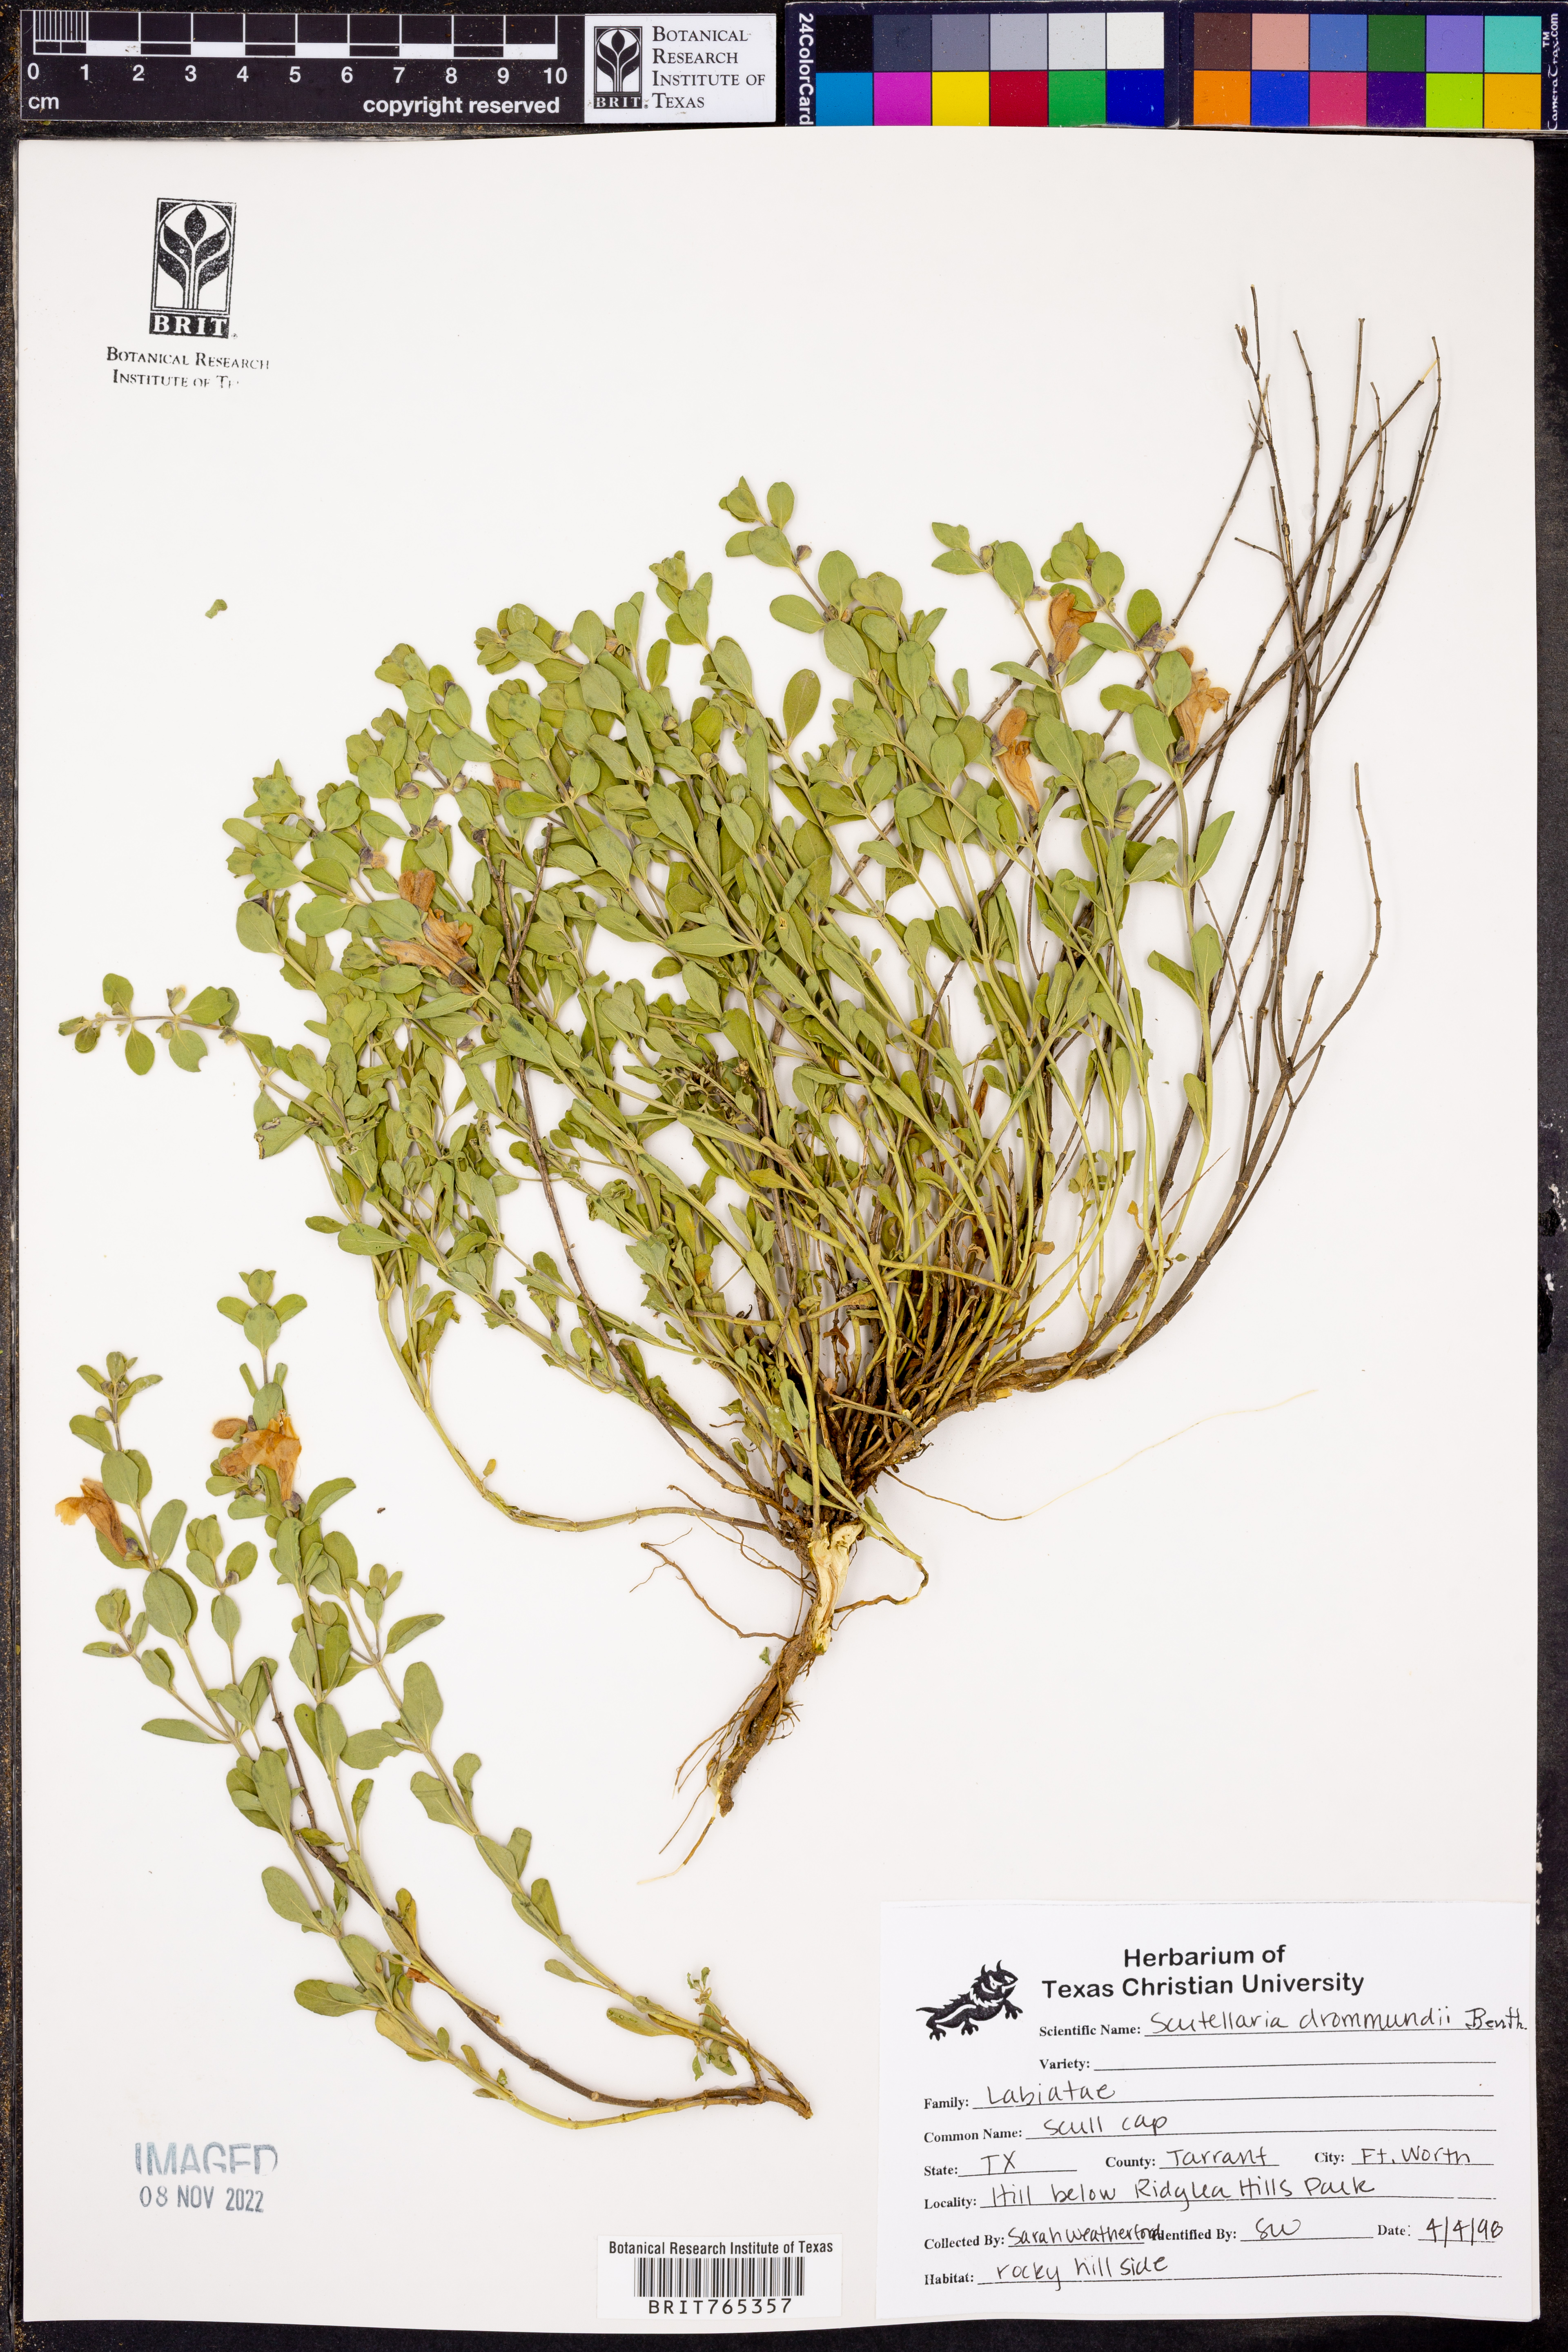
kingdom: Plantae
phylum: Tracheophyta
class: Magnoliopsida
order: Lamiales
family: Lamiaceae
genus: Scutellaria
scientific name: Scutellaria drummondii
